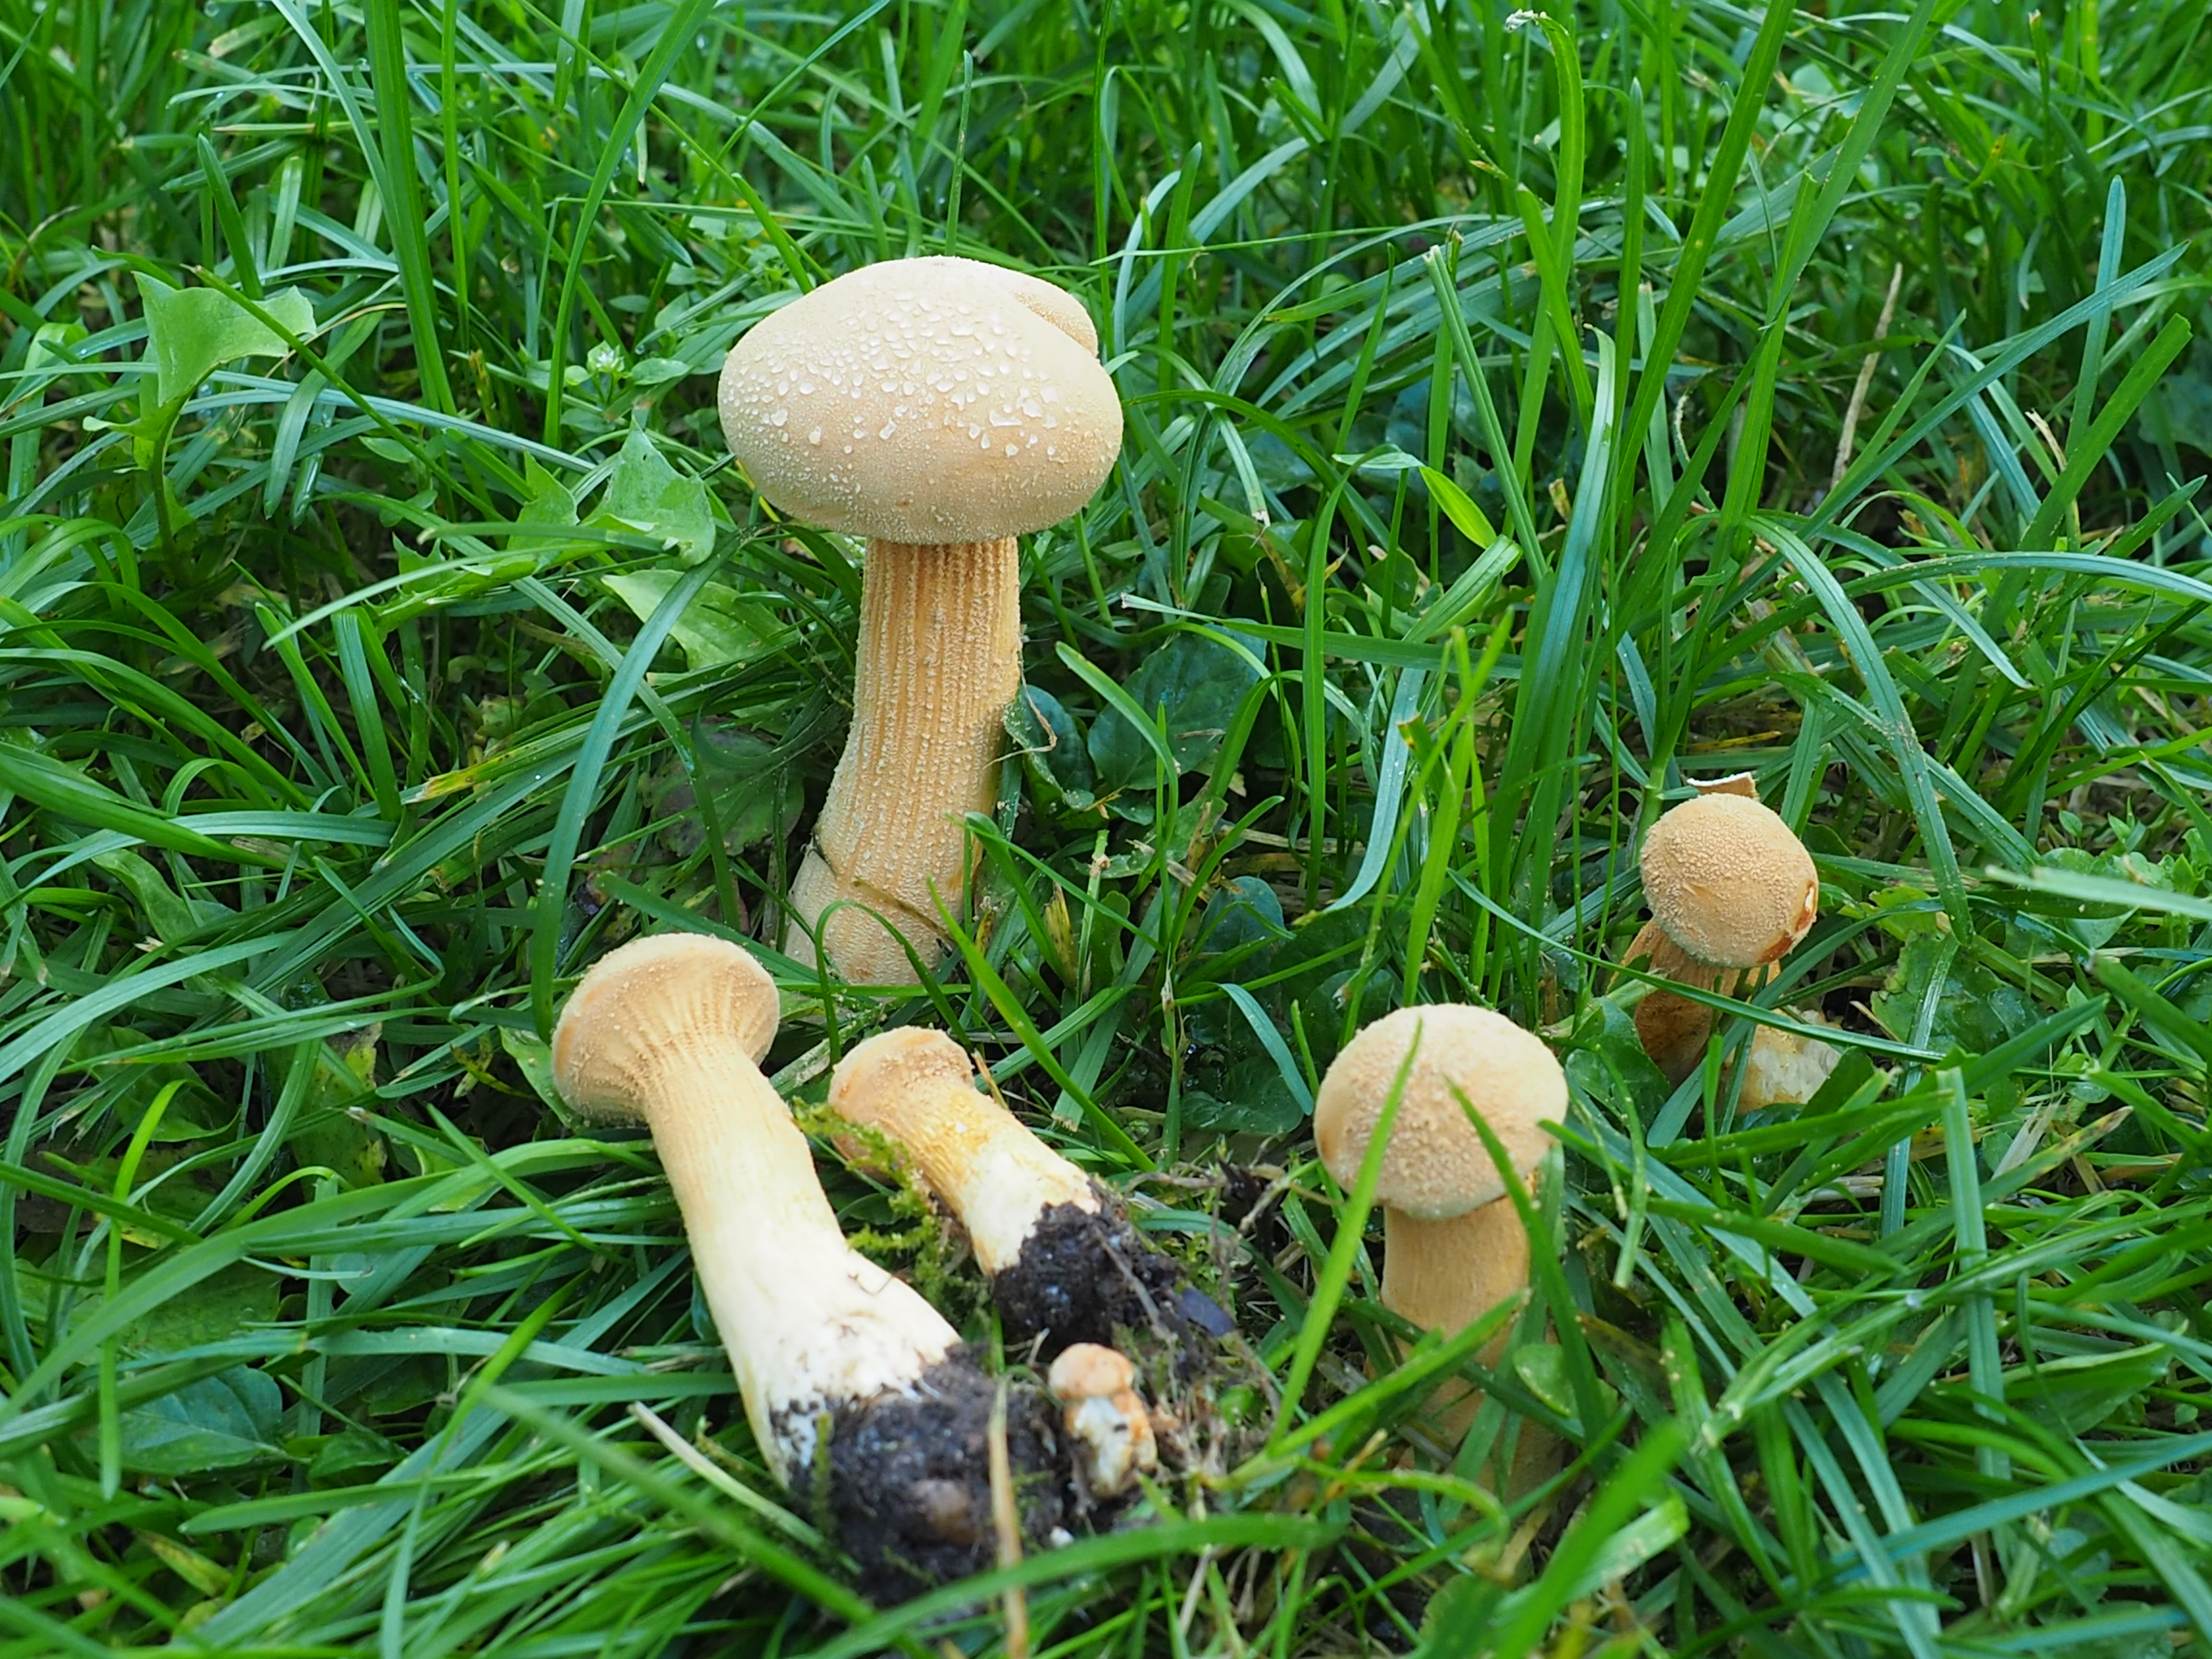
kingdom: Fungi
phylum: Basidiomycota
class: Agaricomycetes
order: Agaricales
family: Tricholomataceae
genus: Phaeolepiota
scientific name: Phaeolepiota aurea
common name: Golden bootleg
